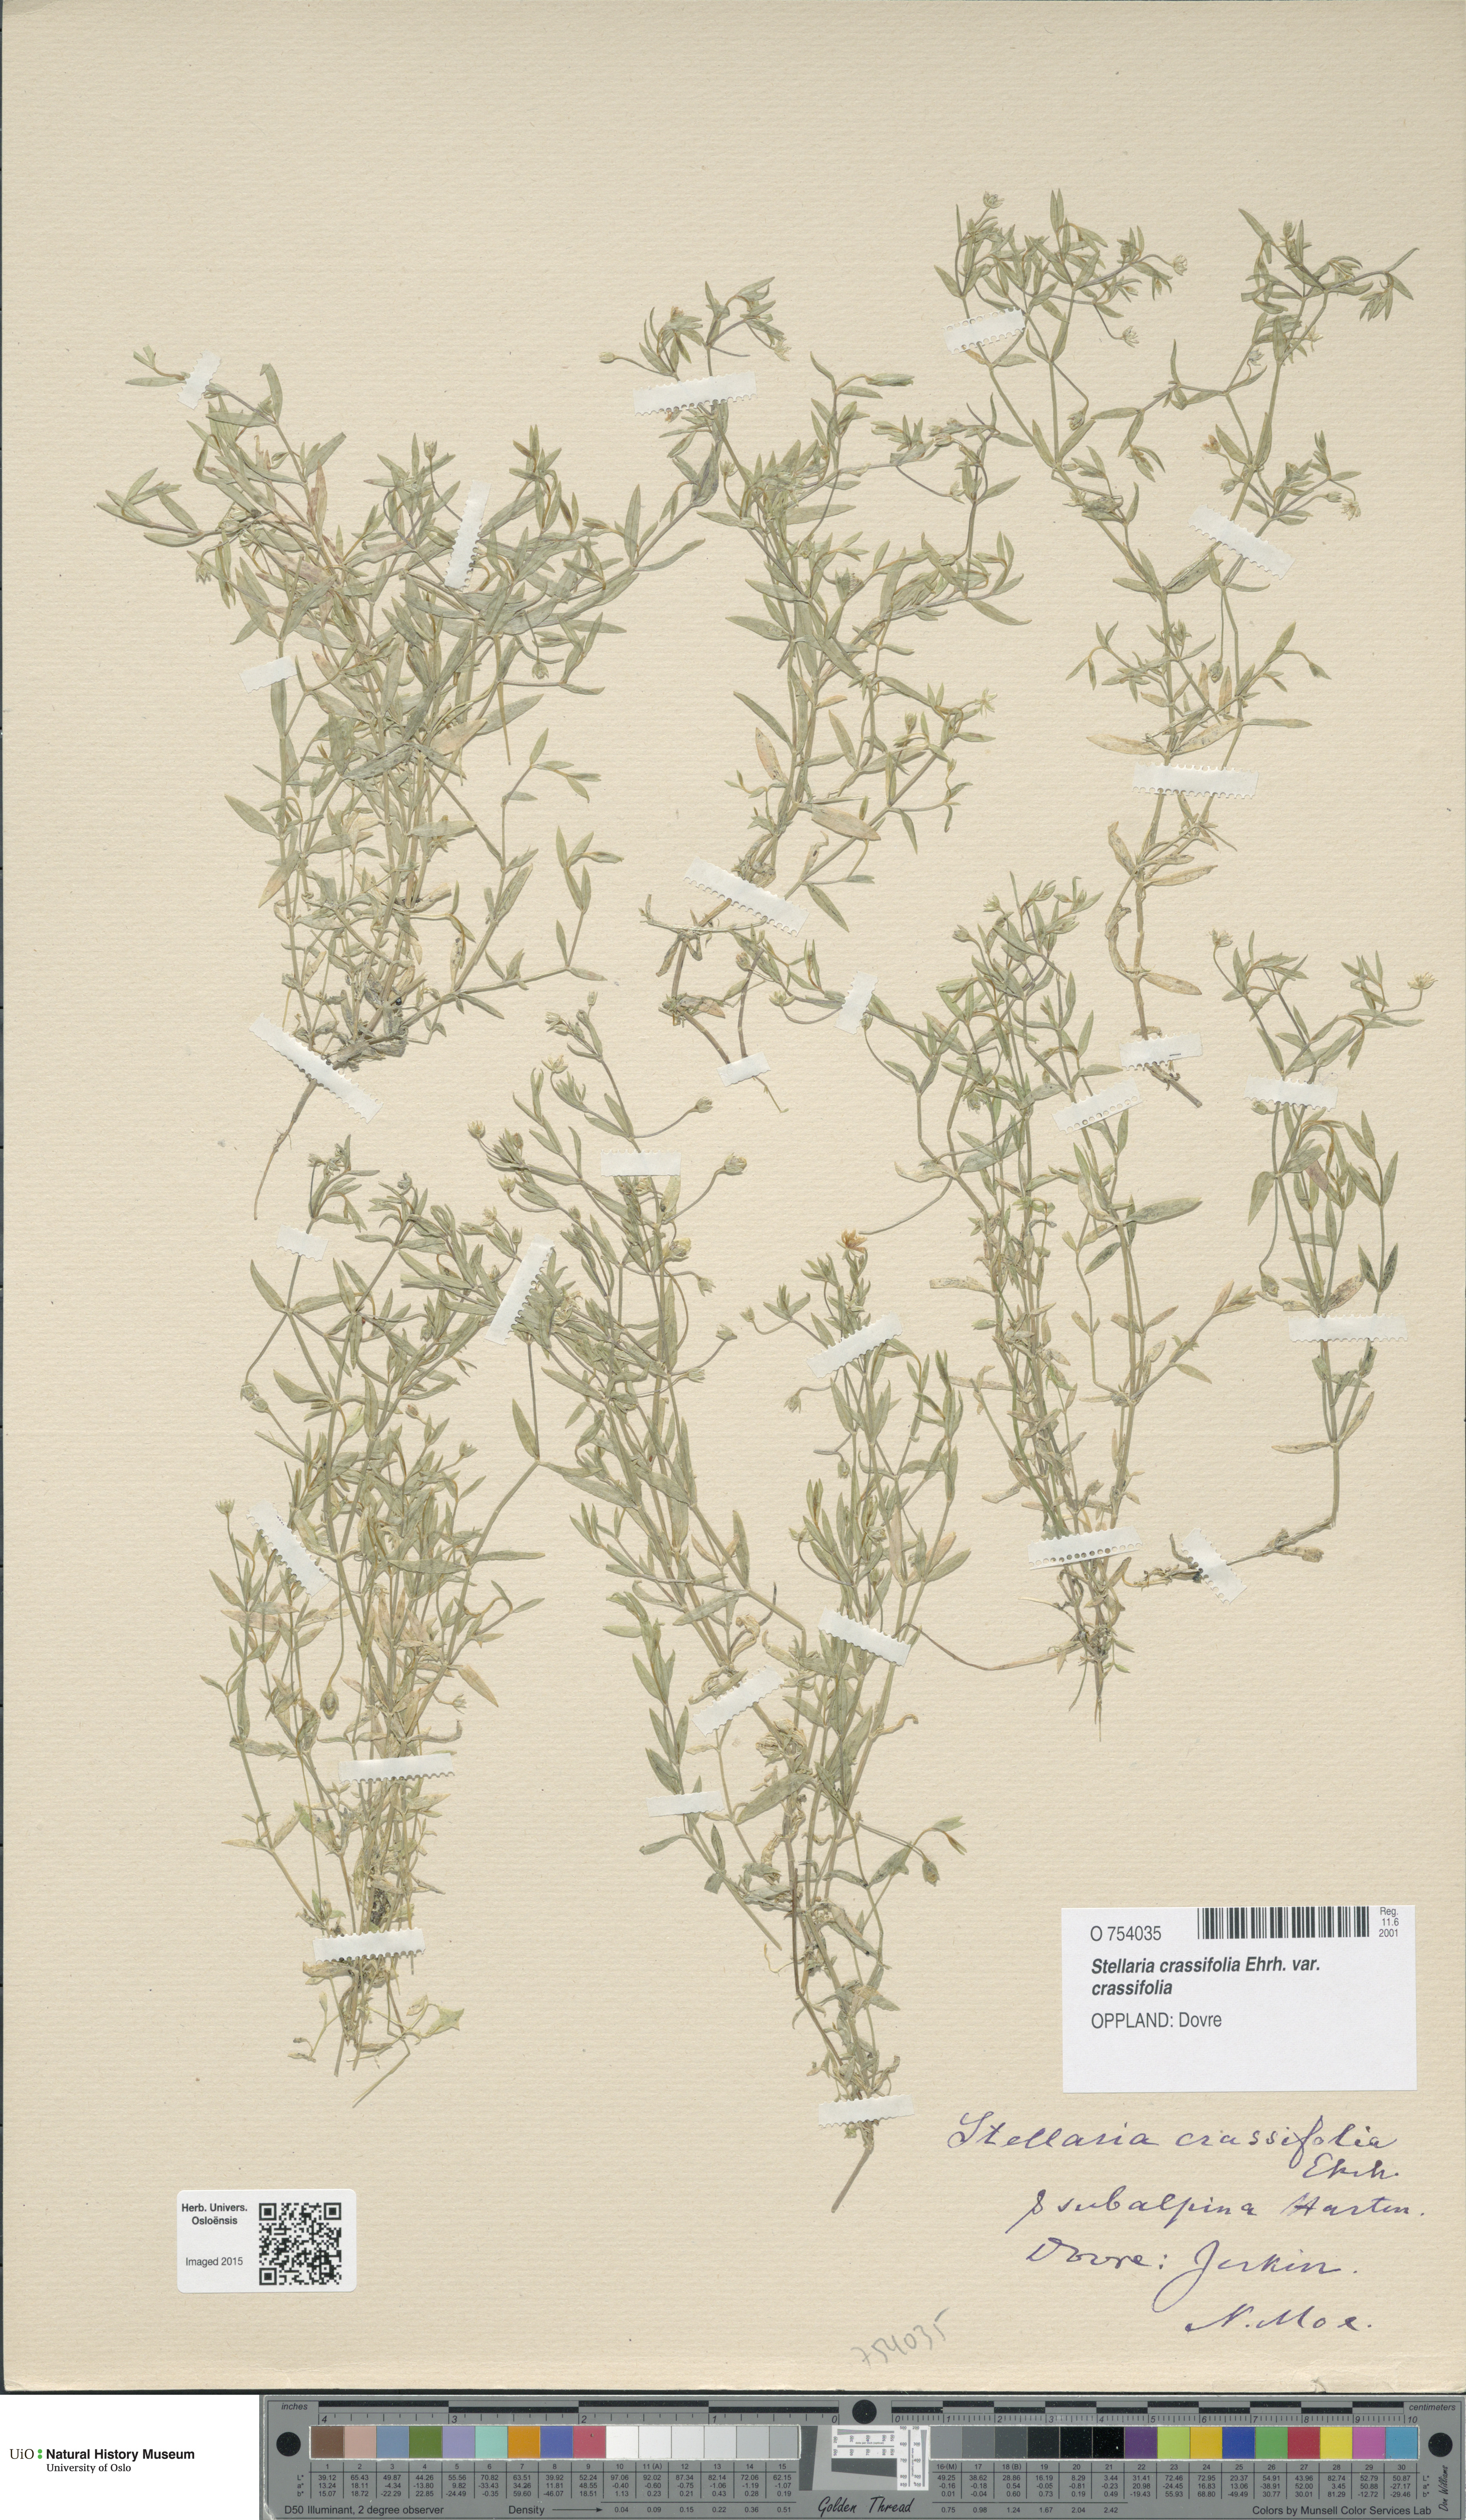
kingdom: Plantae
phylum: Tracheophyta
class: Magnoliopsida
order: Caryophyllales
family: Caryophyllaceae
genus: Stellaria
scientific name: Stellaria crassifolia
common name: Fleshy starwort
